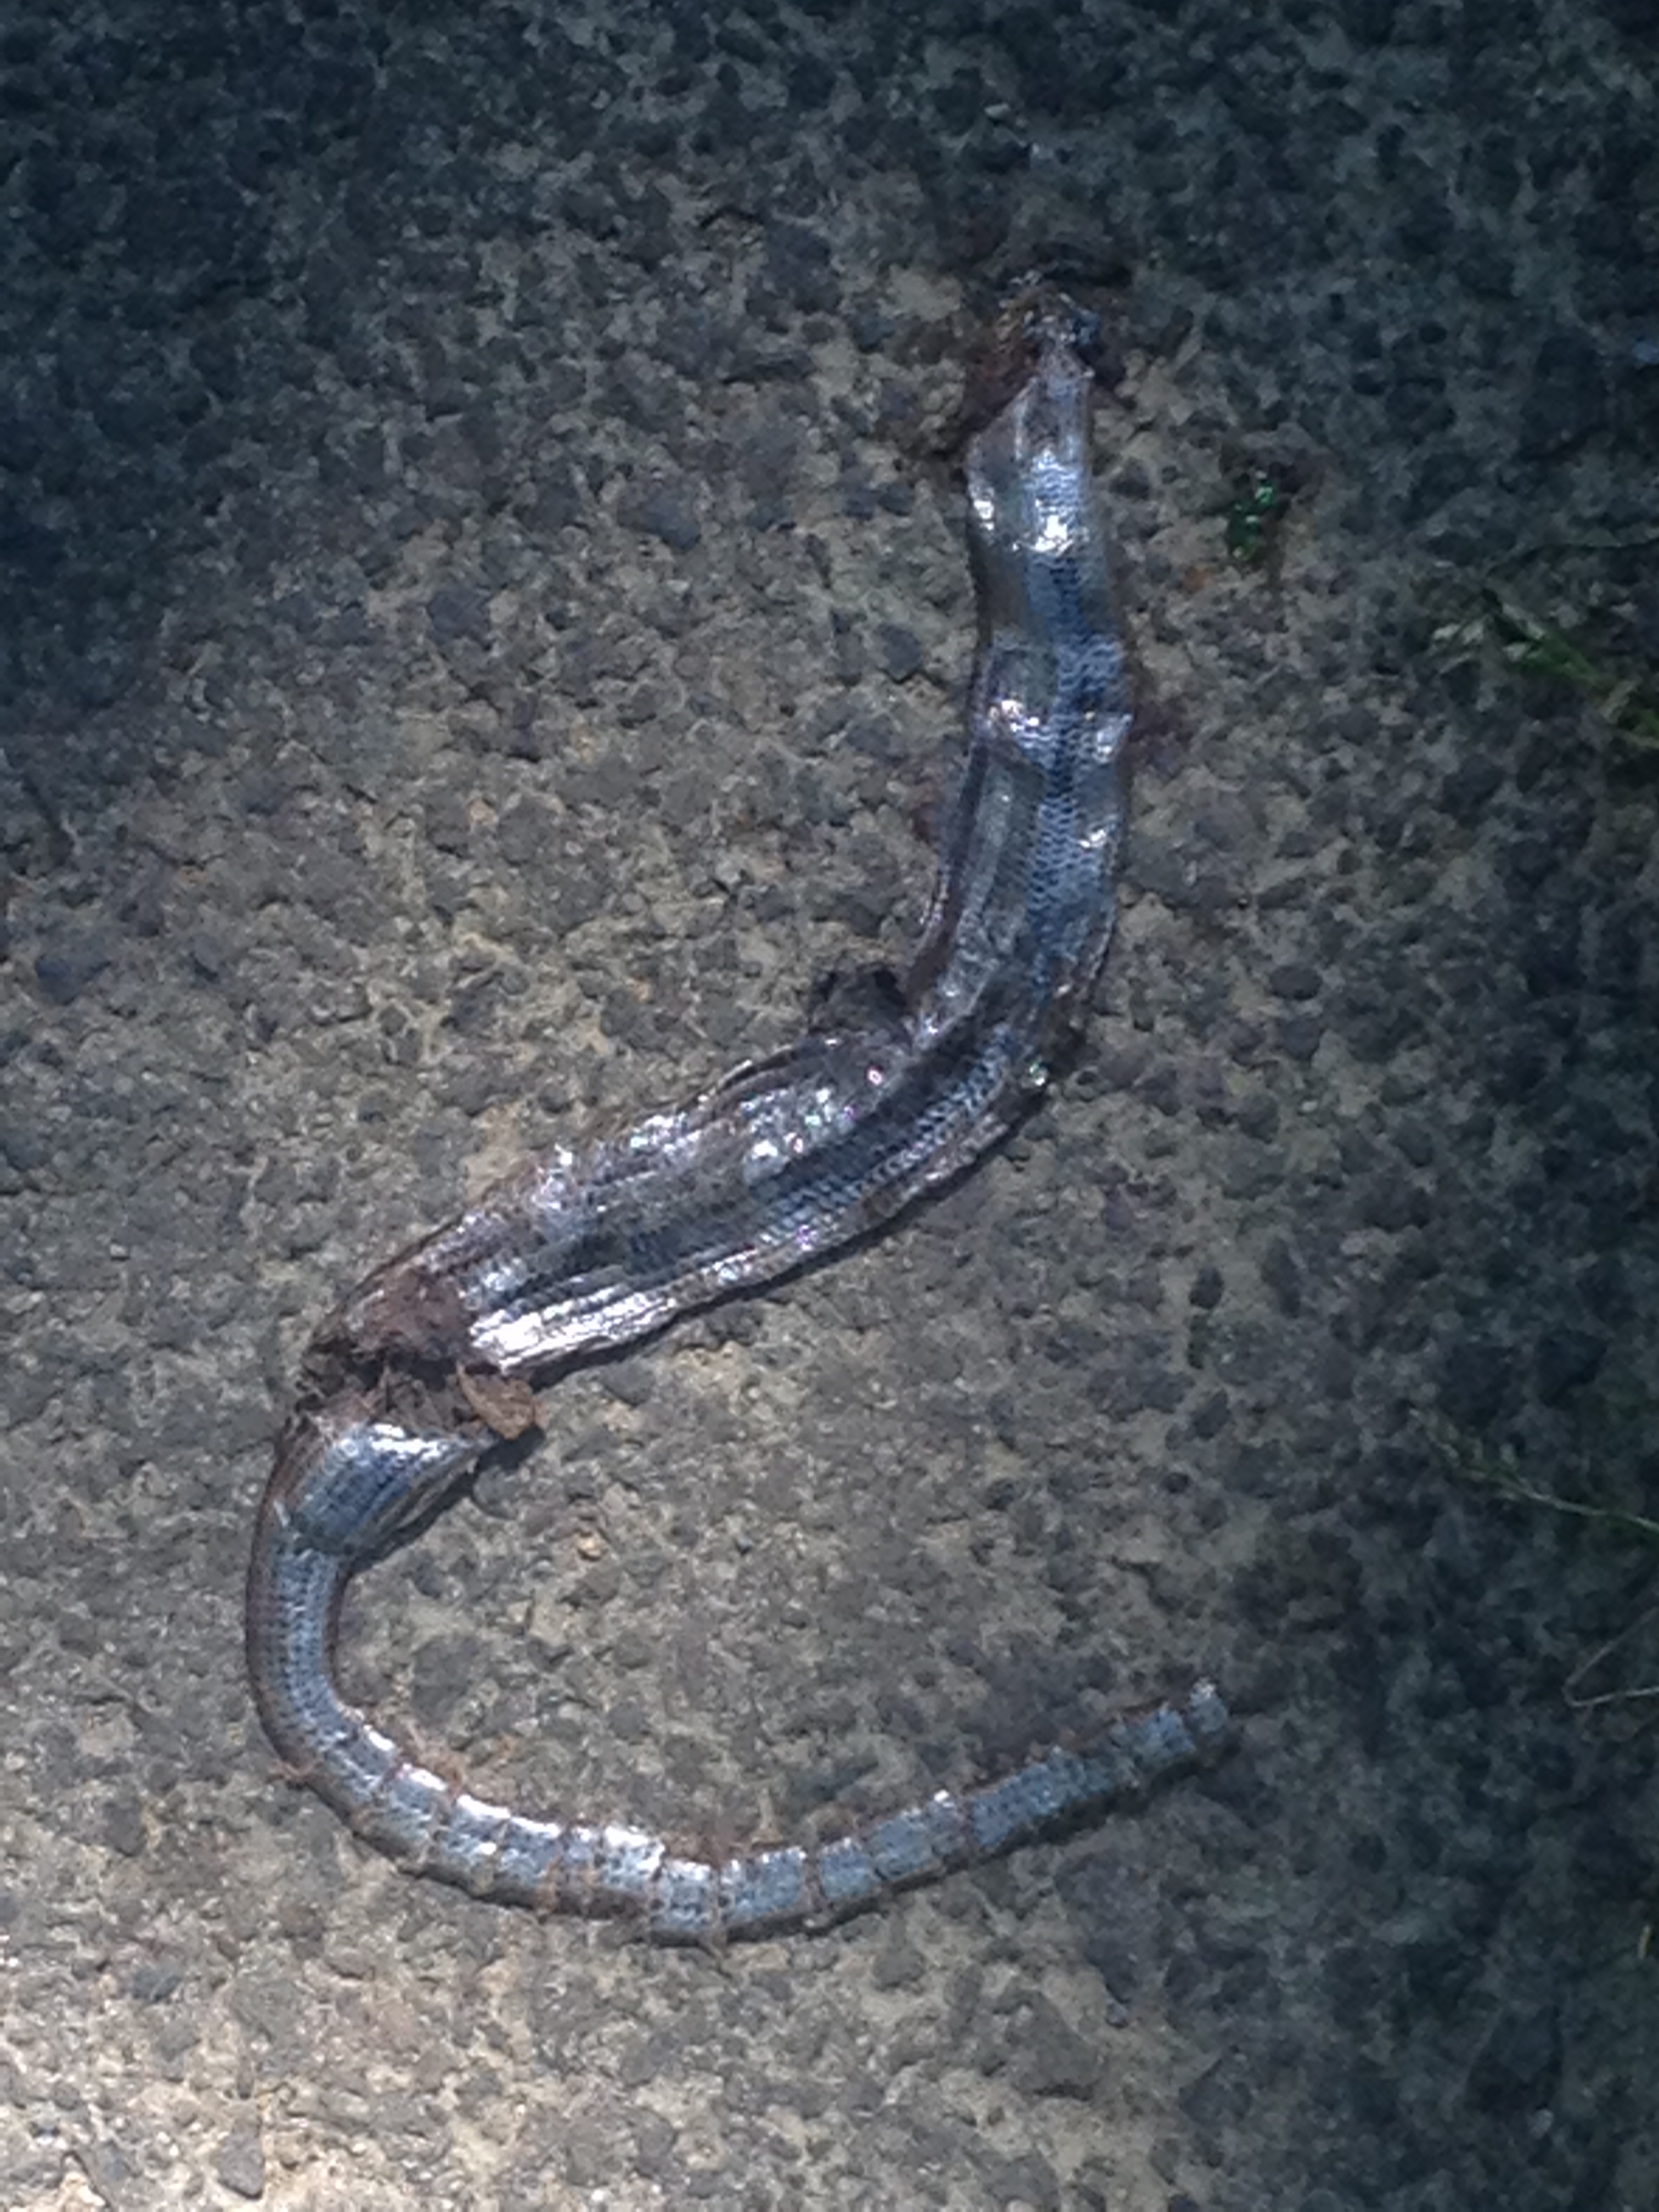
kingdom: Animalia
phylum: Chordata
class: Squamata
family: Anguidae
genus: Anguis
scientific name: Anguis fragilis
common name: Slow worm
